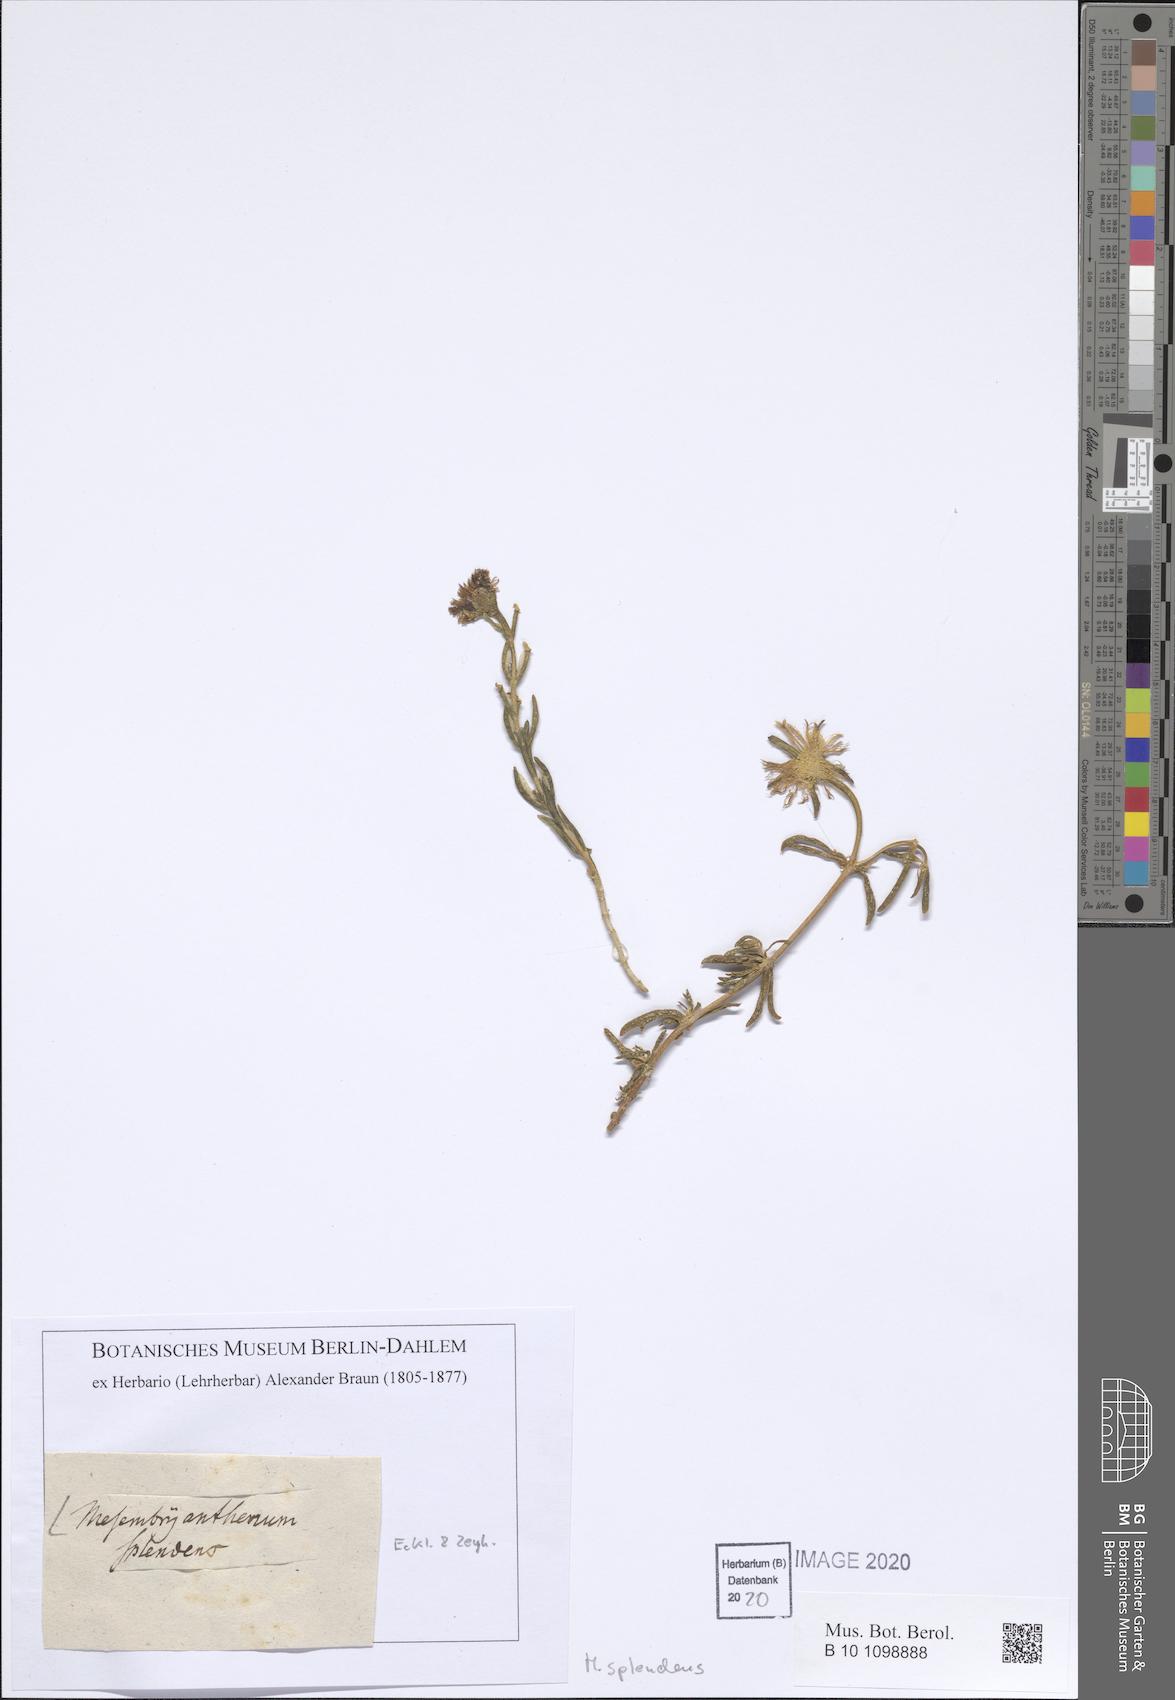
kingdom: Plantae
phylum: Tracheophyta
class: Magnoliopsida
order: Caryophyllales
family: Aizoaceae
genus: Lampranthus
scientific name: Lampranthus aduncus
